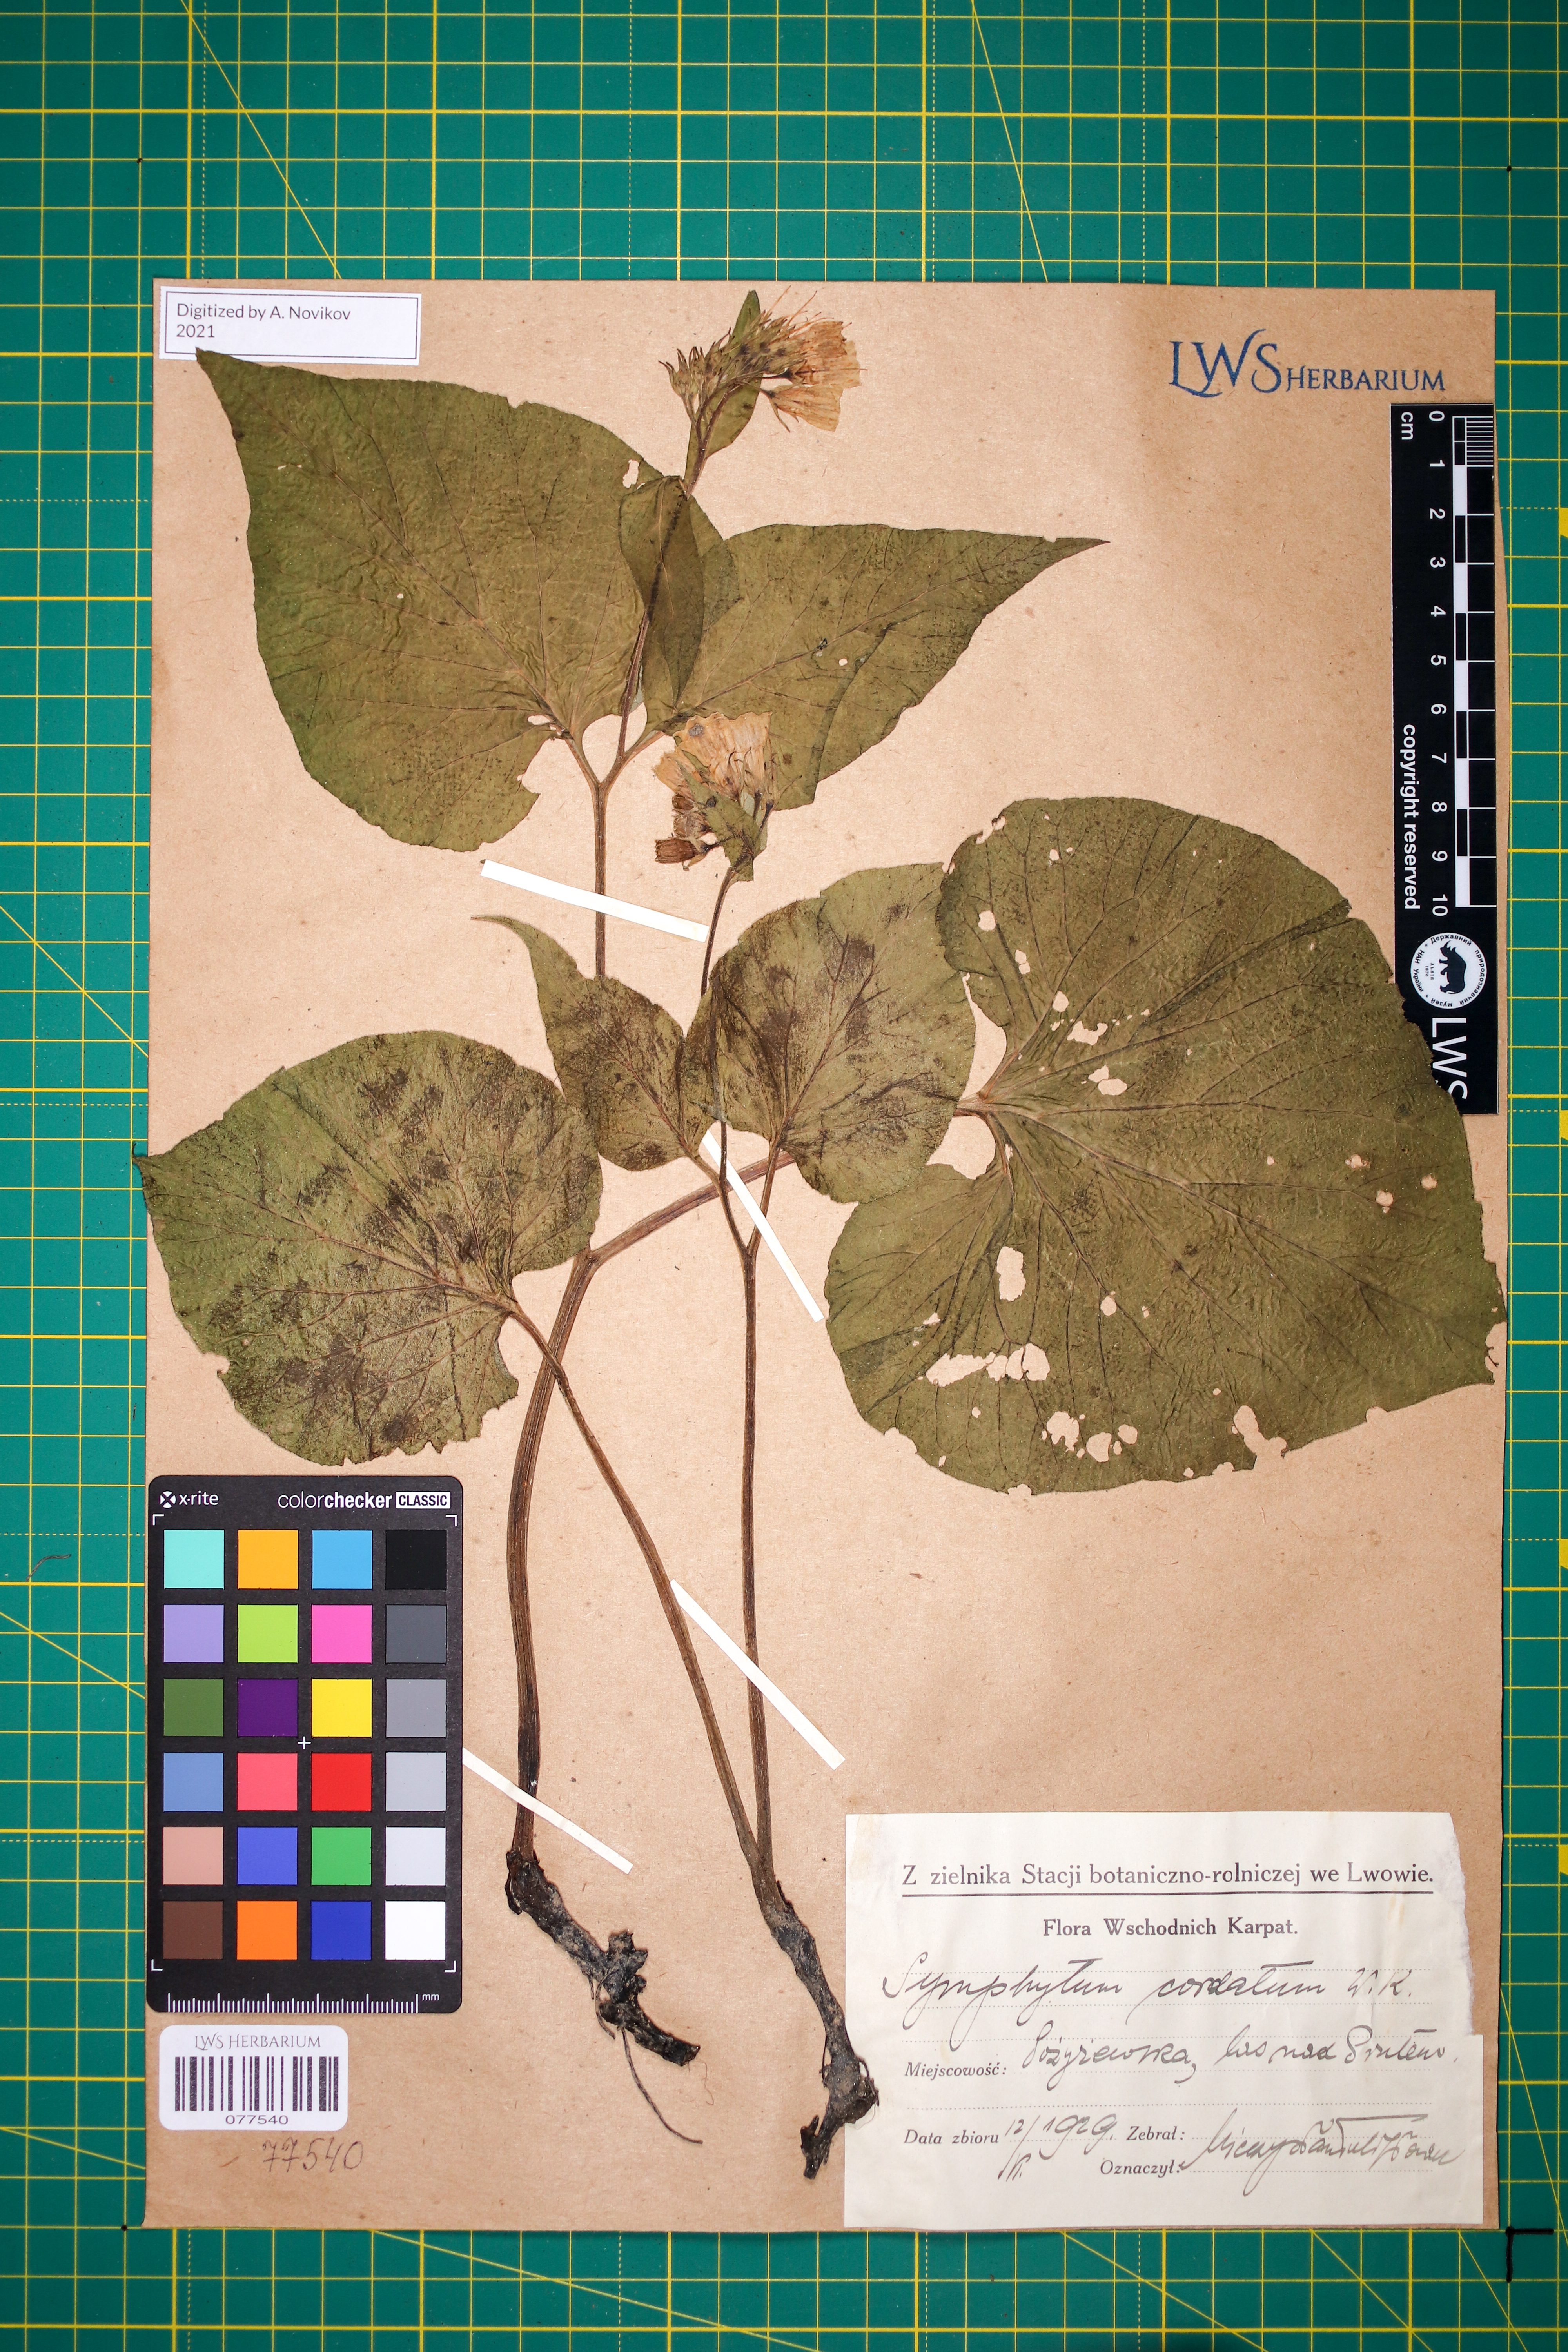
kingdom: Plantae
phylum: Tracheophyta
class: Magnoliopsida
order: Boraginales
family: Boraginaceae
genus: Symphytum
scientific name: Symphytum cordatum
